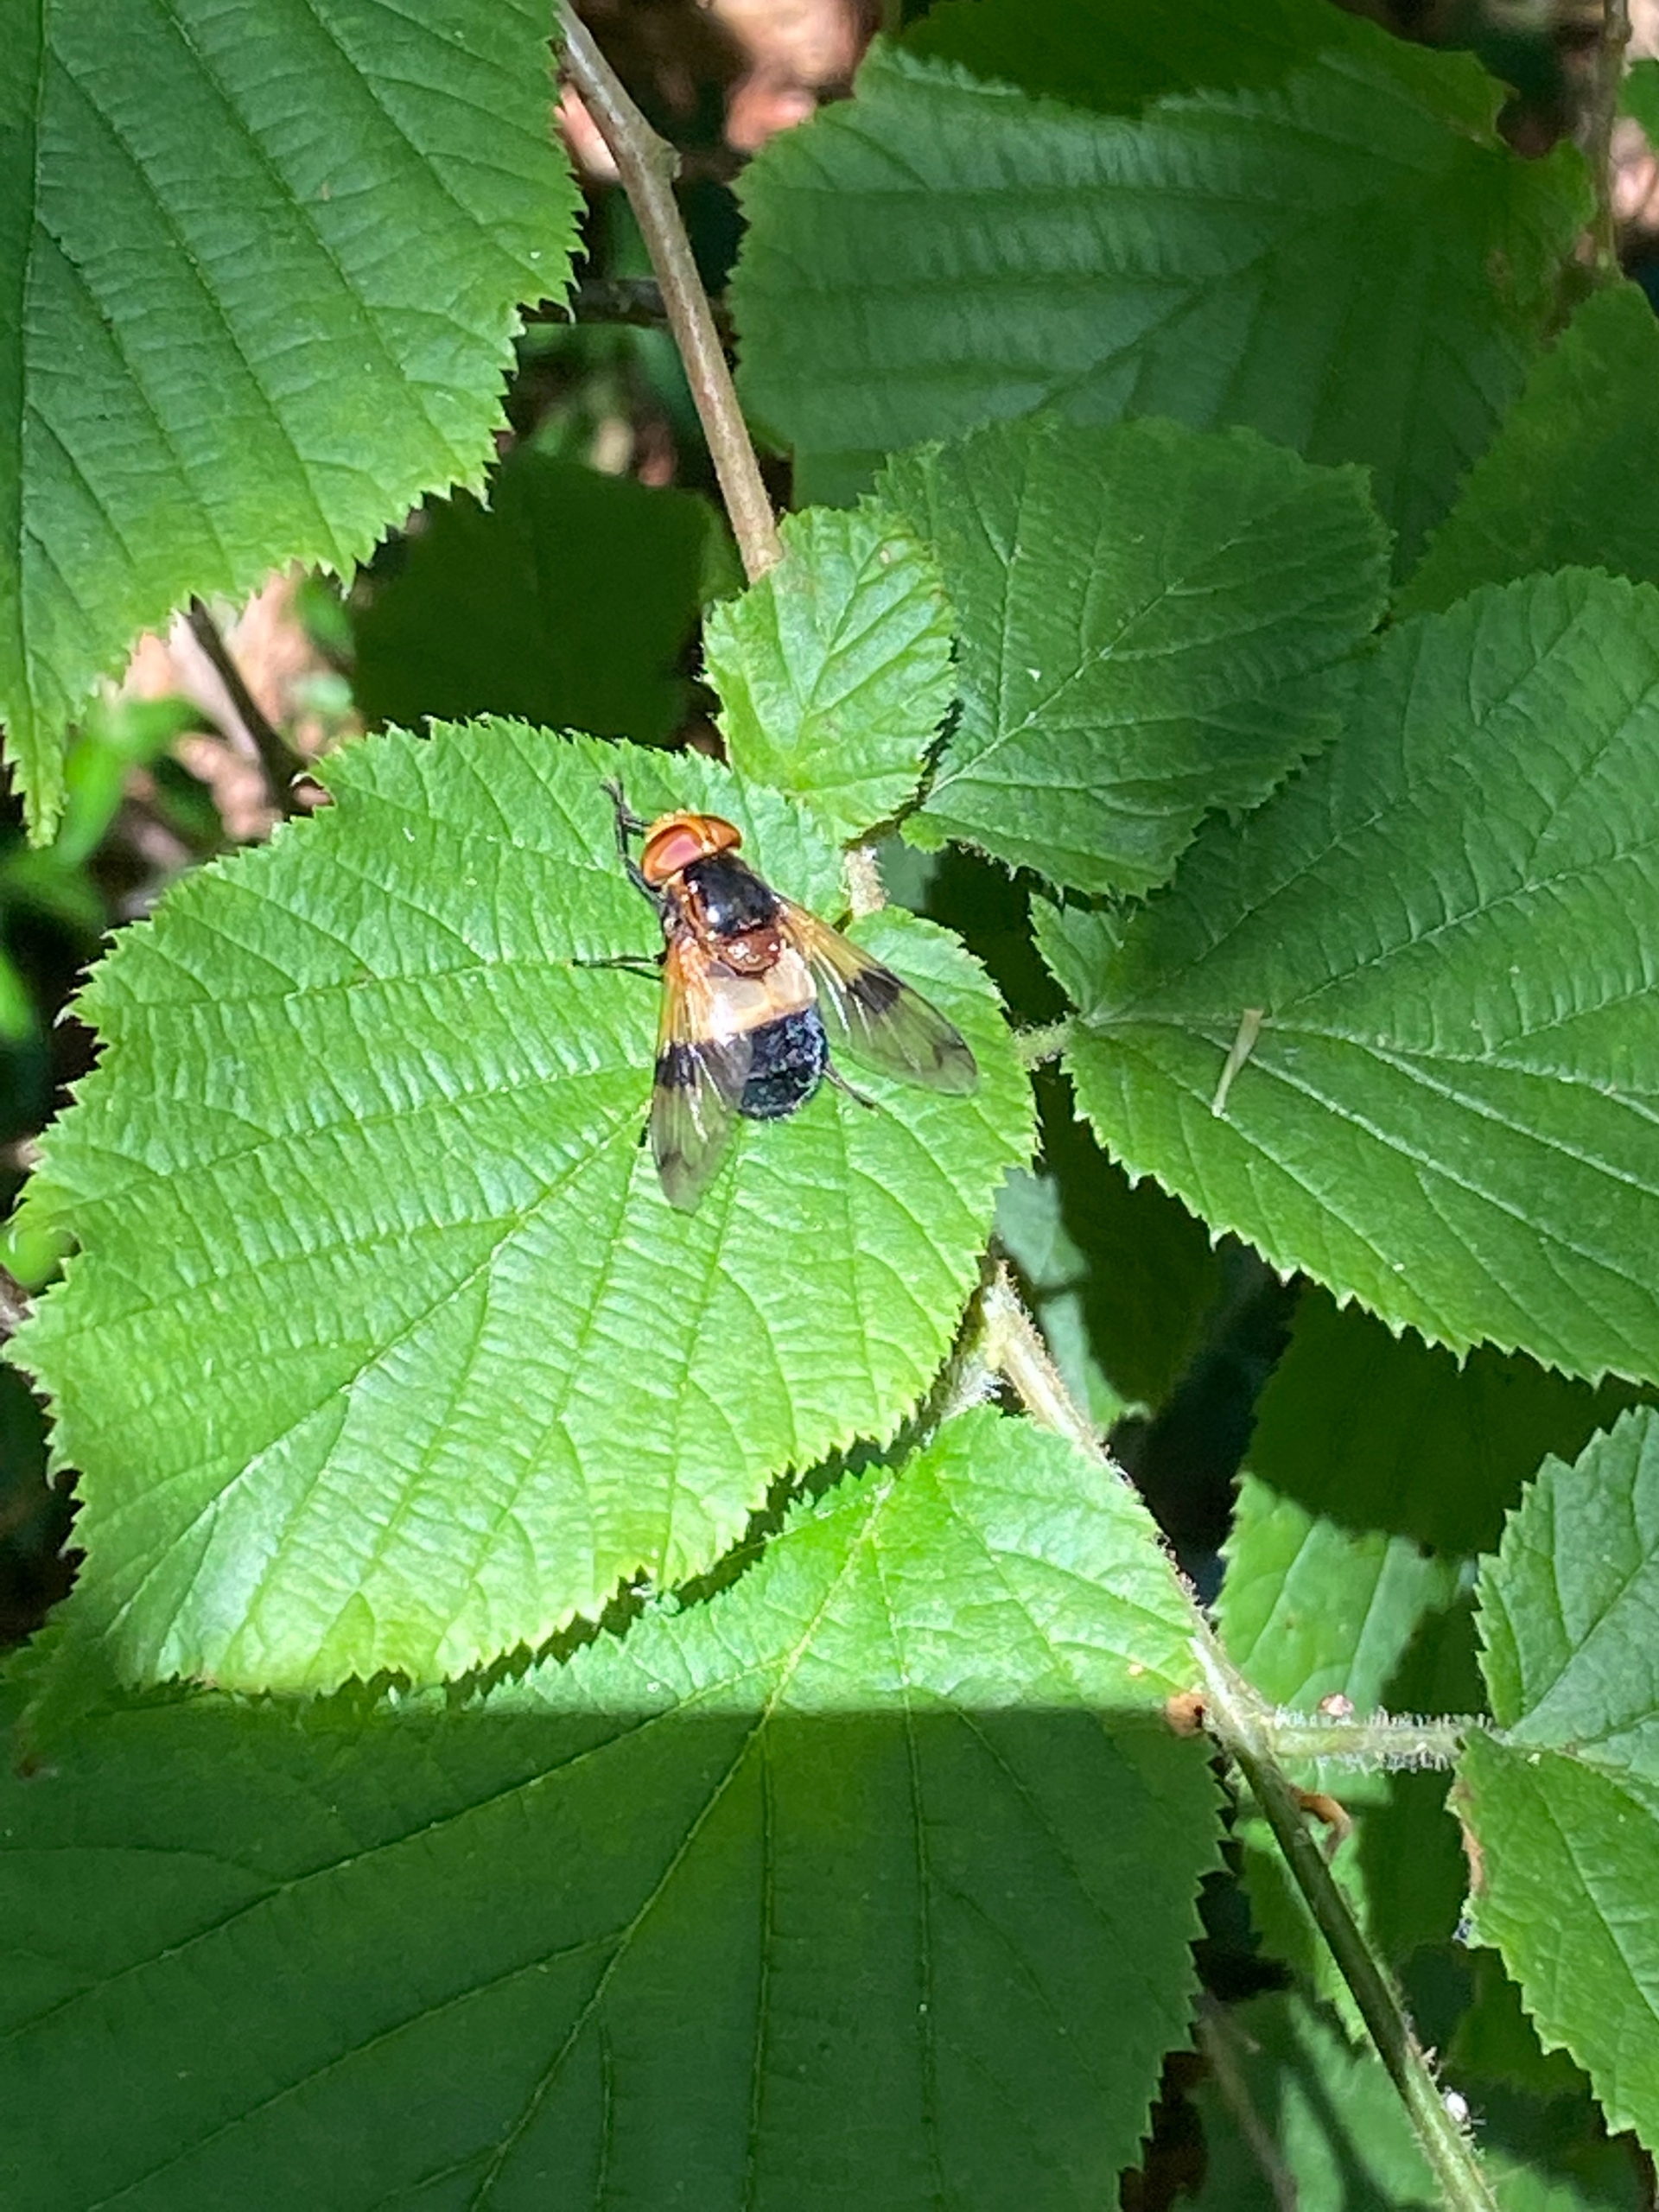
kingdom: Animalia
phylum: Arthropoda
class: Insecta
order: Diptera
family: Syrphidae
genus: Volucella
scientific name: Volucella pellucens
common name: Hvidbåndet humlesvirreflue
